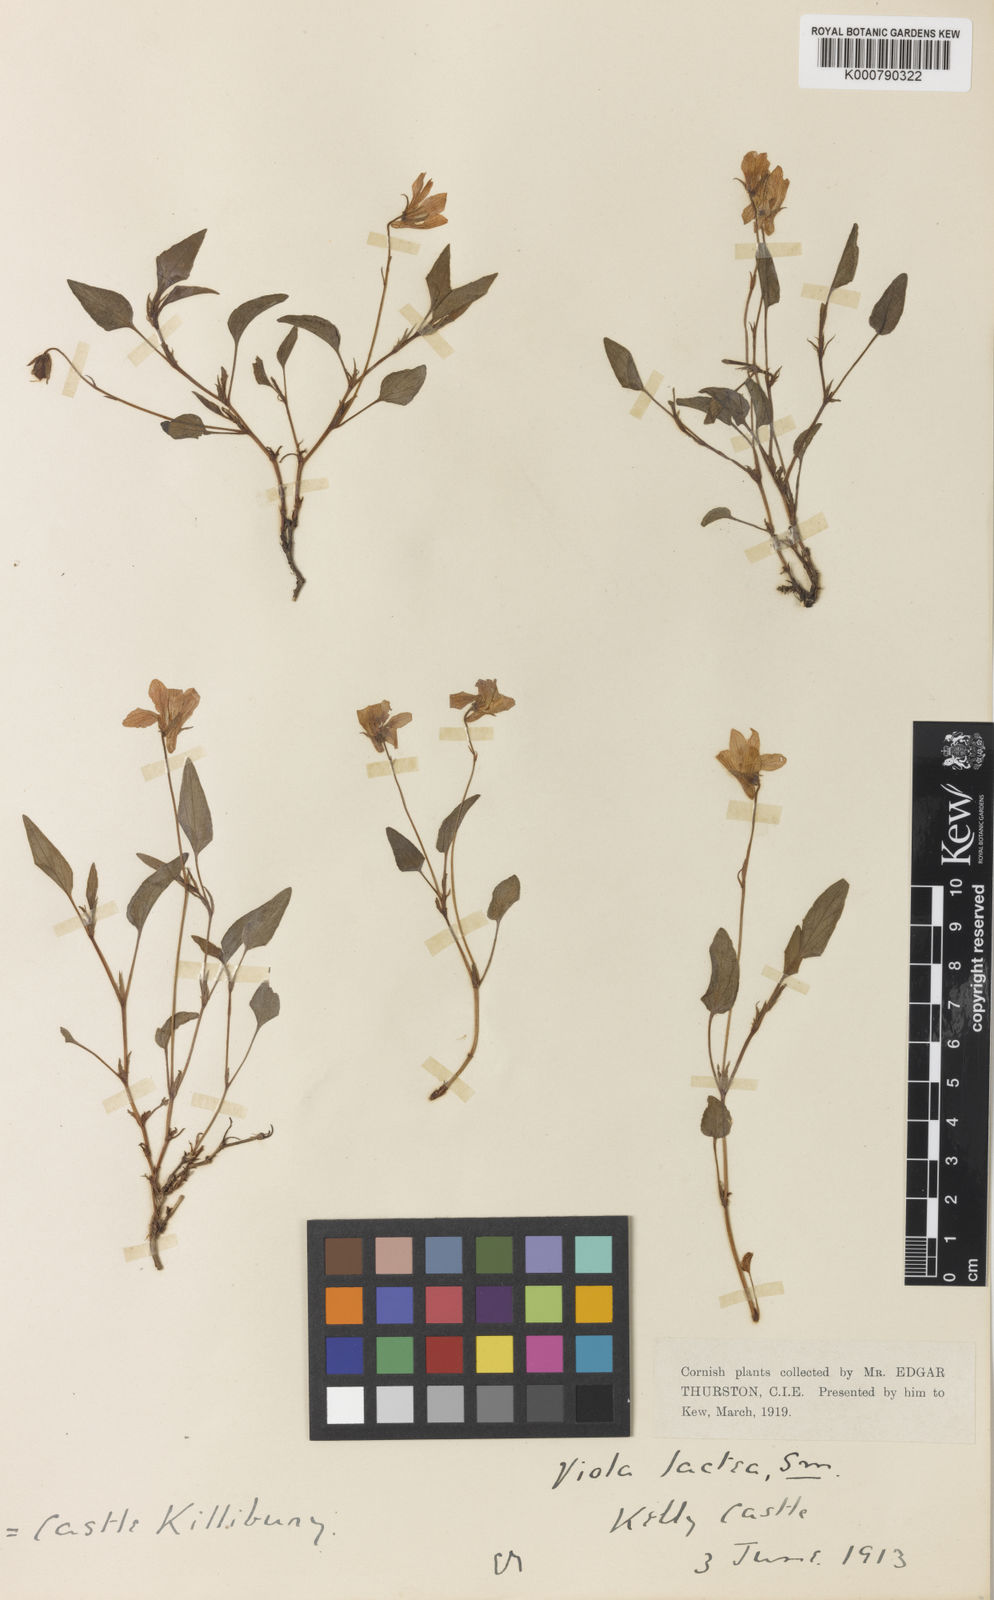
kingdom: Plantae
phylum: Tracheophyta
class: Magnoliopsida
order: Malpighiales
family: Violaceae
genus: Viola
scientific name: Viola lactea
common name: Pale dog-violet
